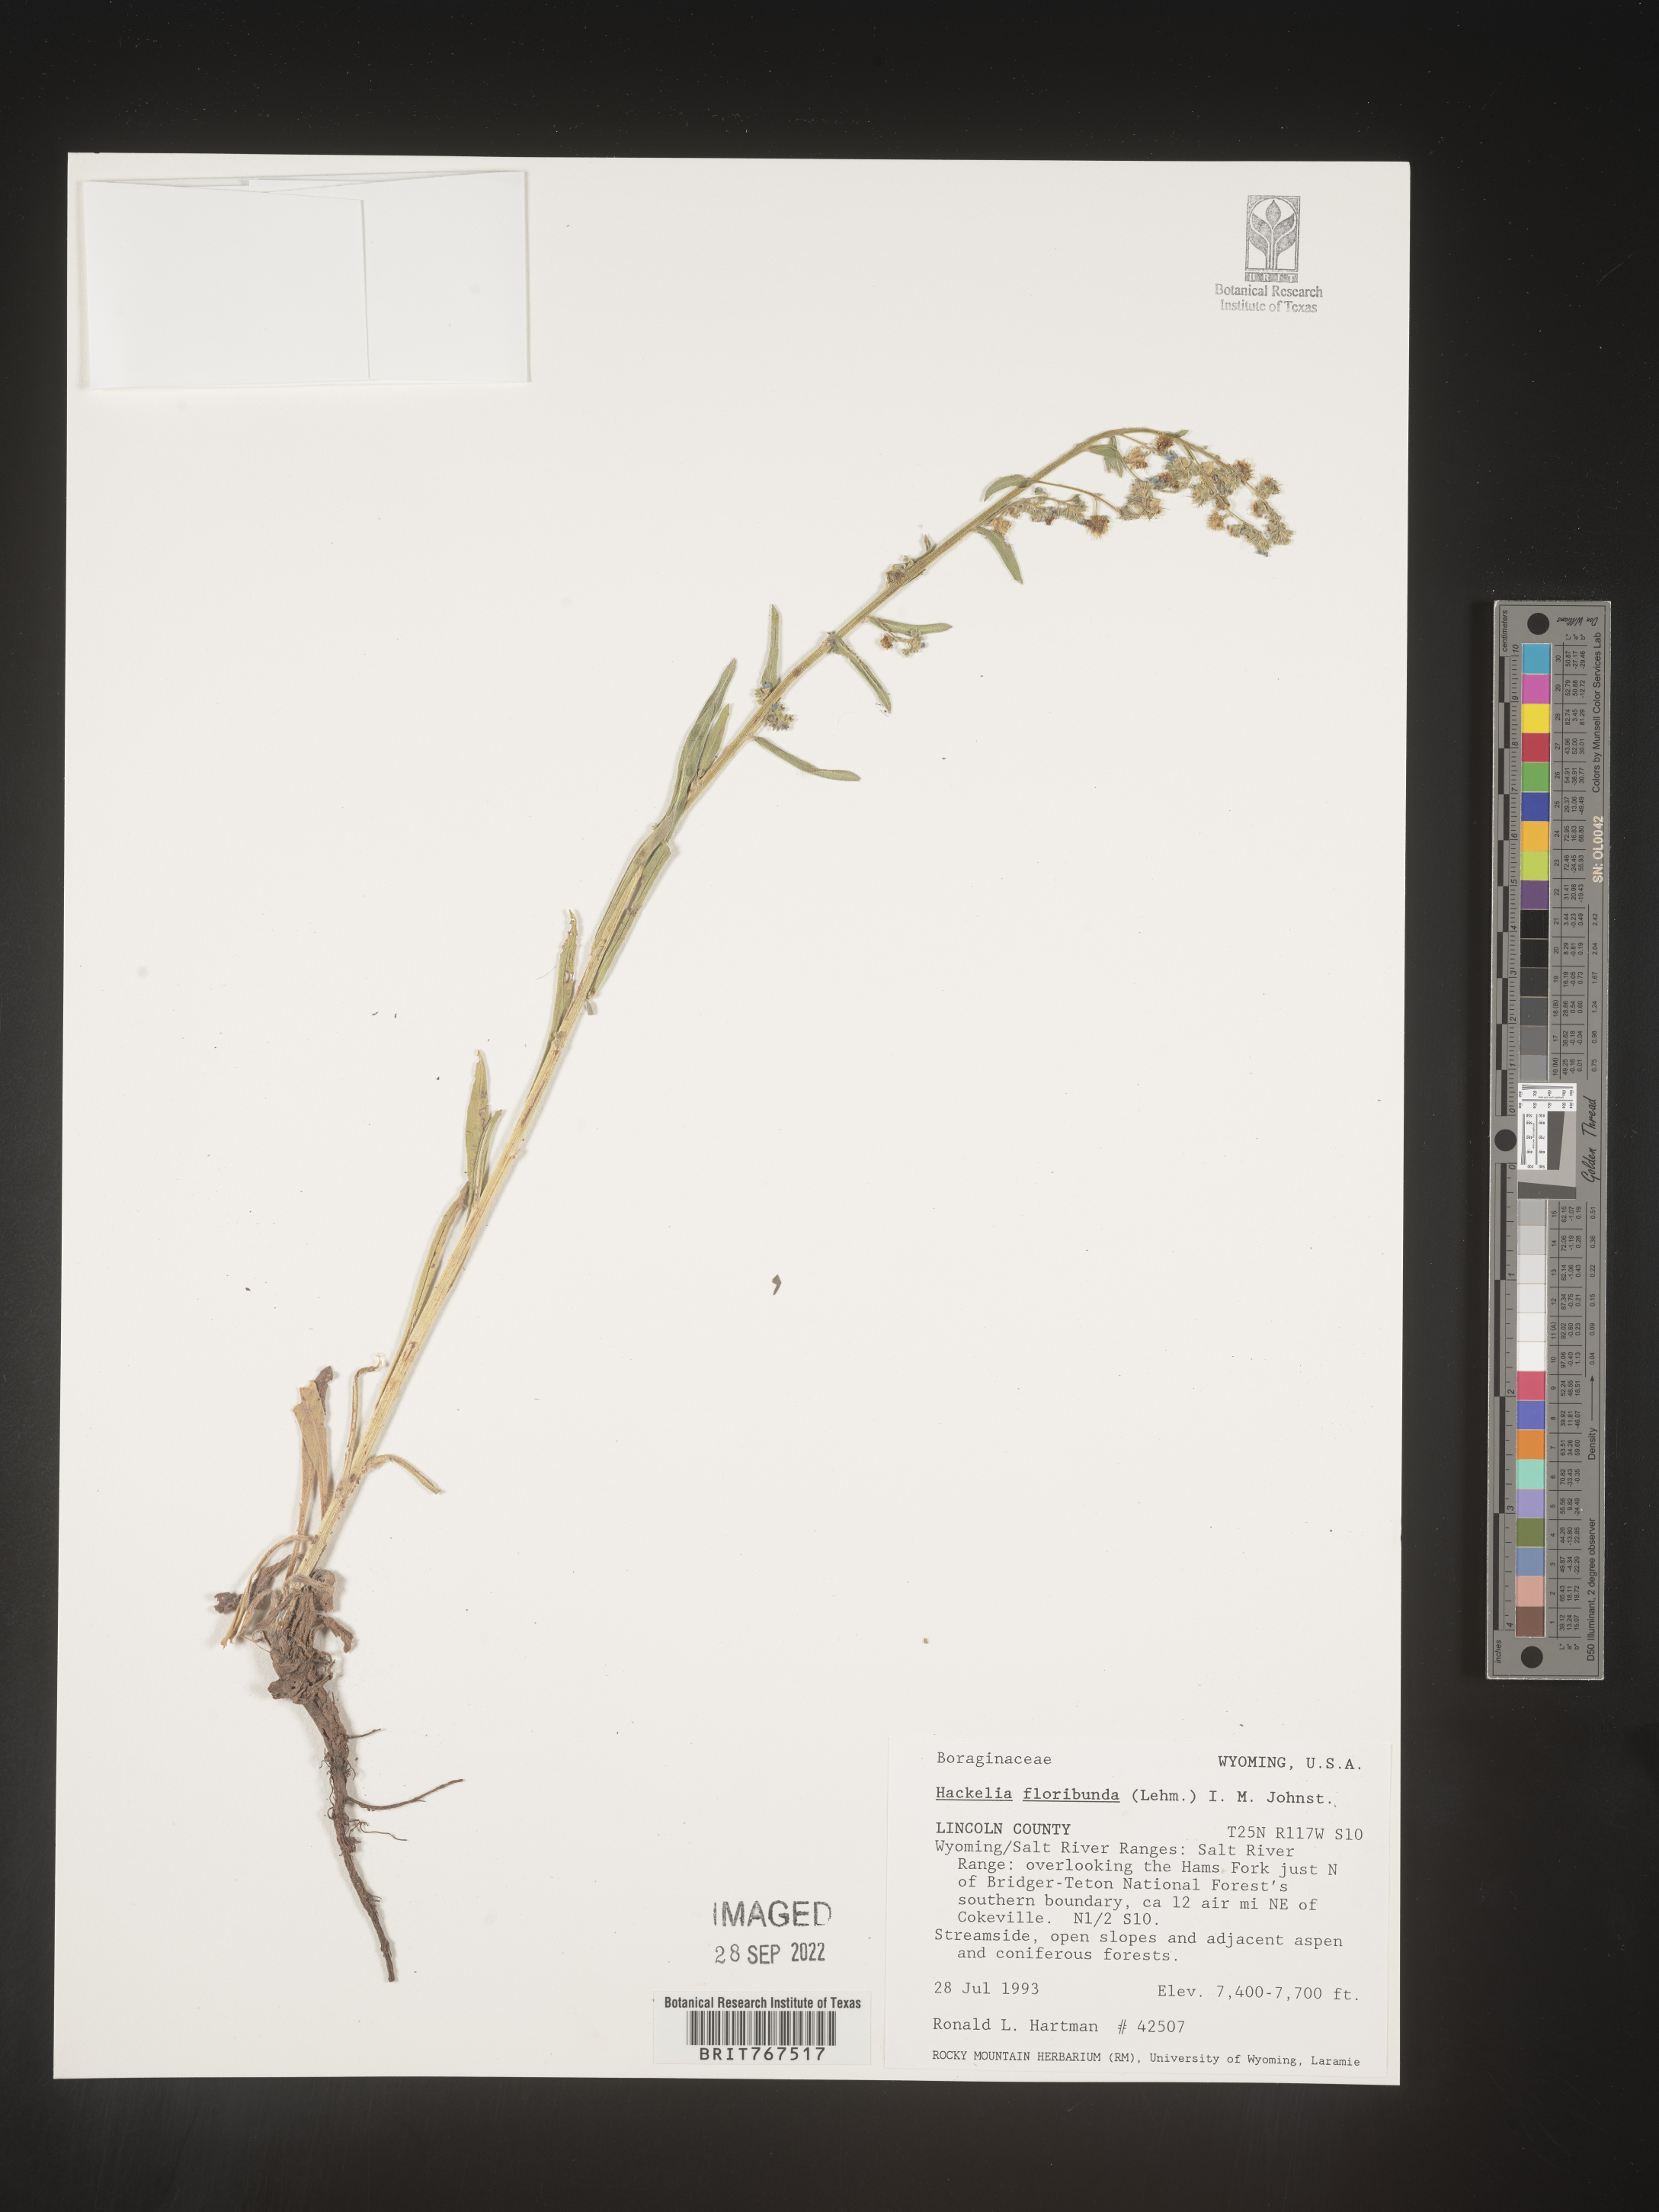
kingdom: Plantae
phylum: Tracheophyta
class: Magnoliopsida
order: Boraginales
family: Boraginaceae
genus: Hackelia
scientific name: Hackelia floribunda
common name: Large-flowered stickseed
